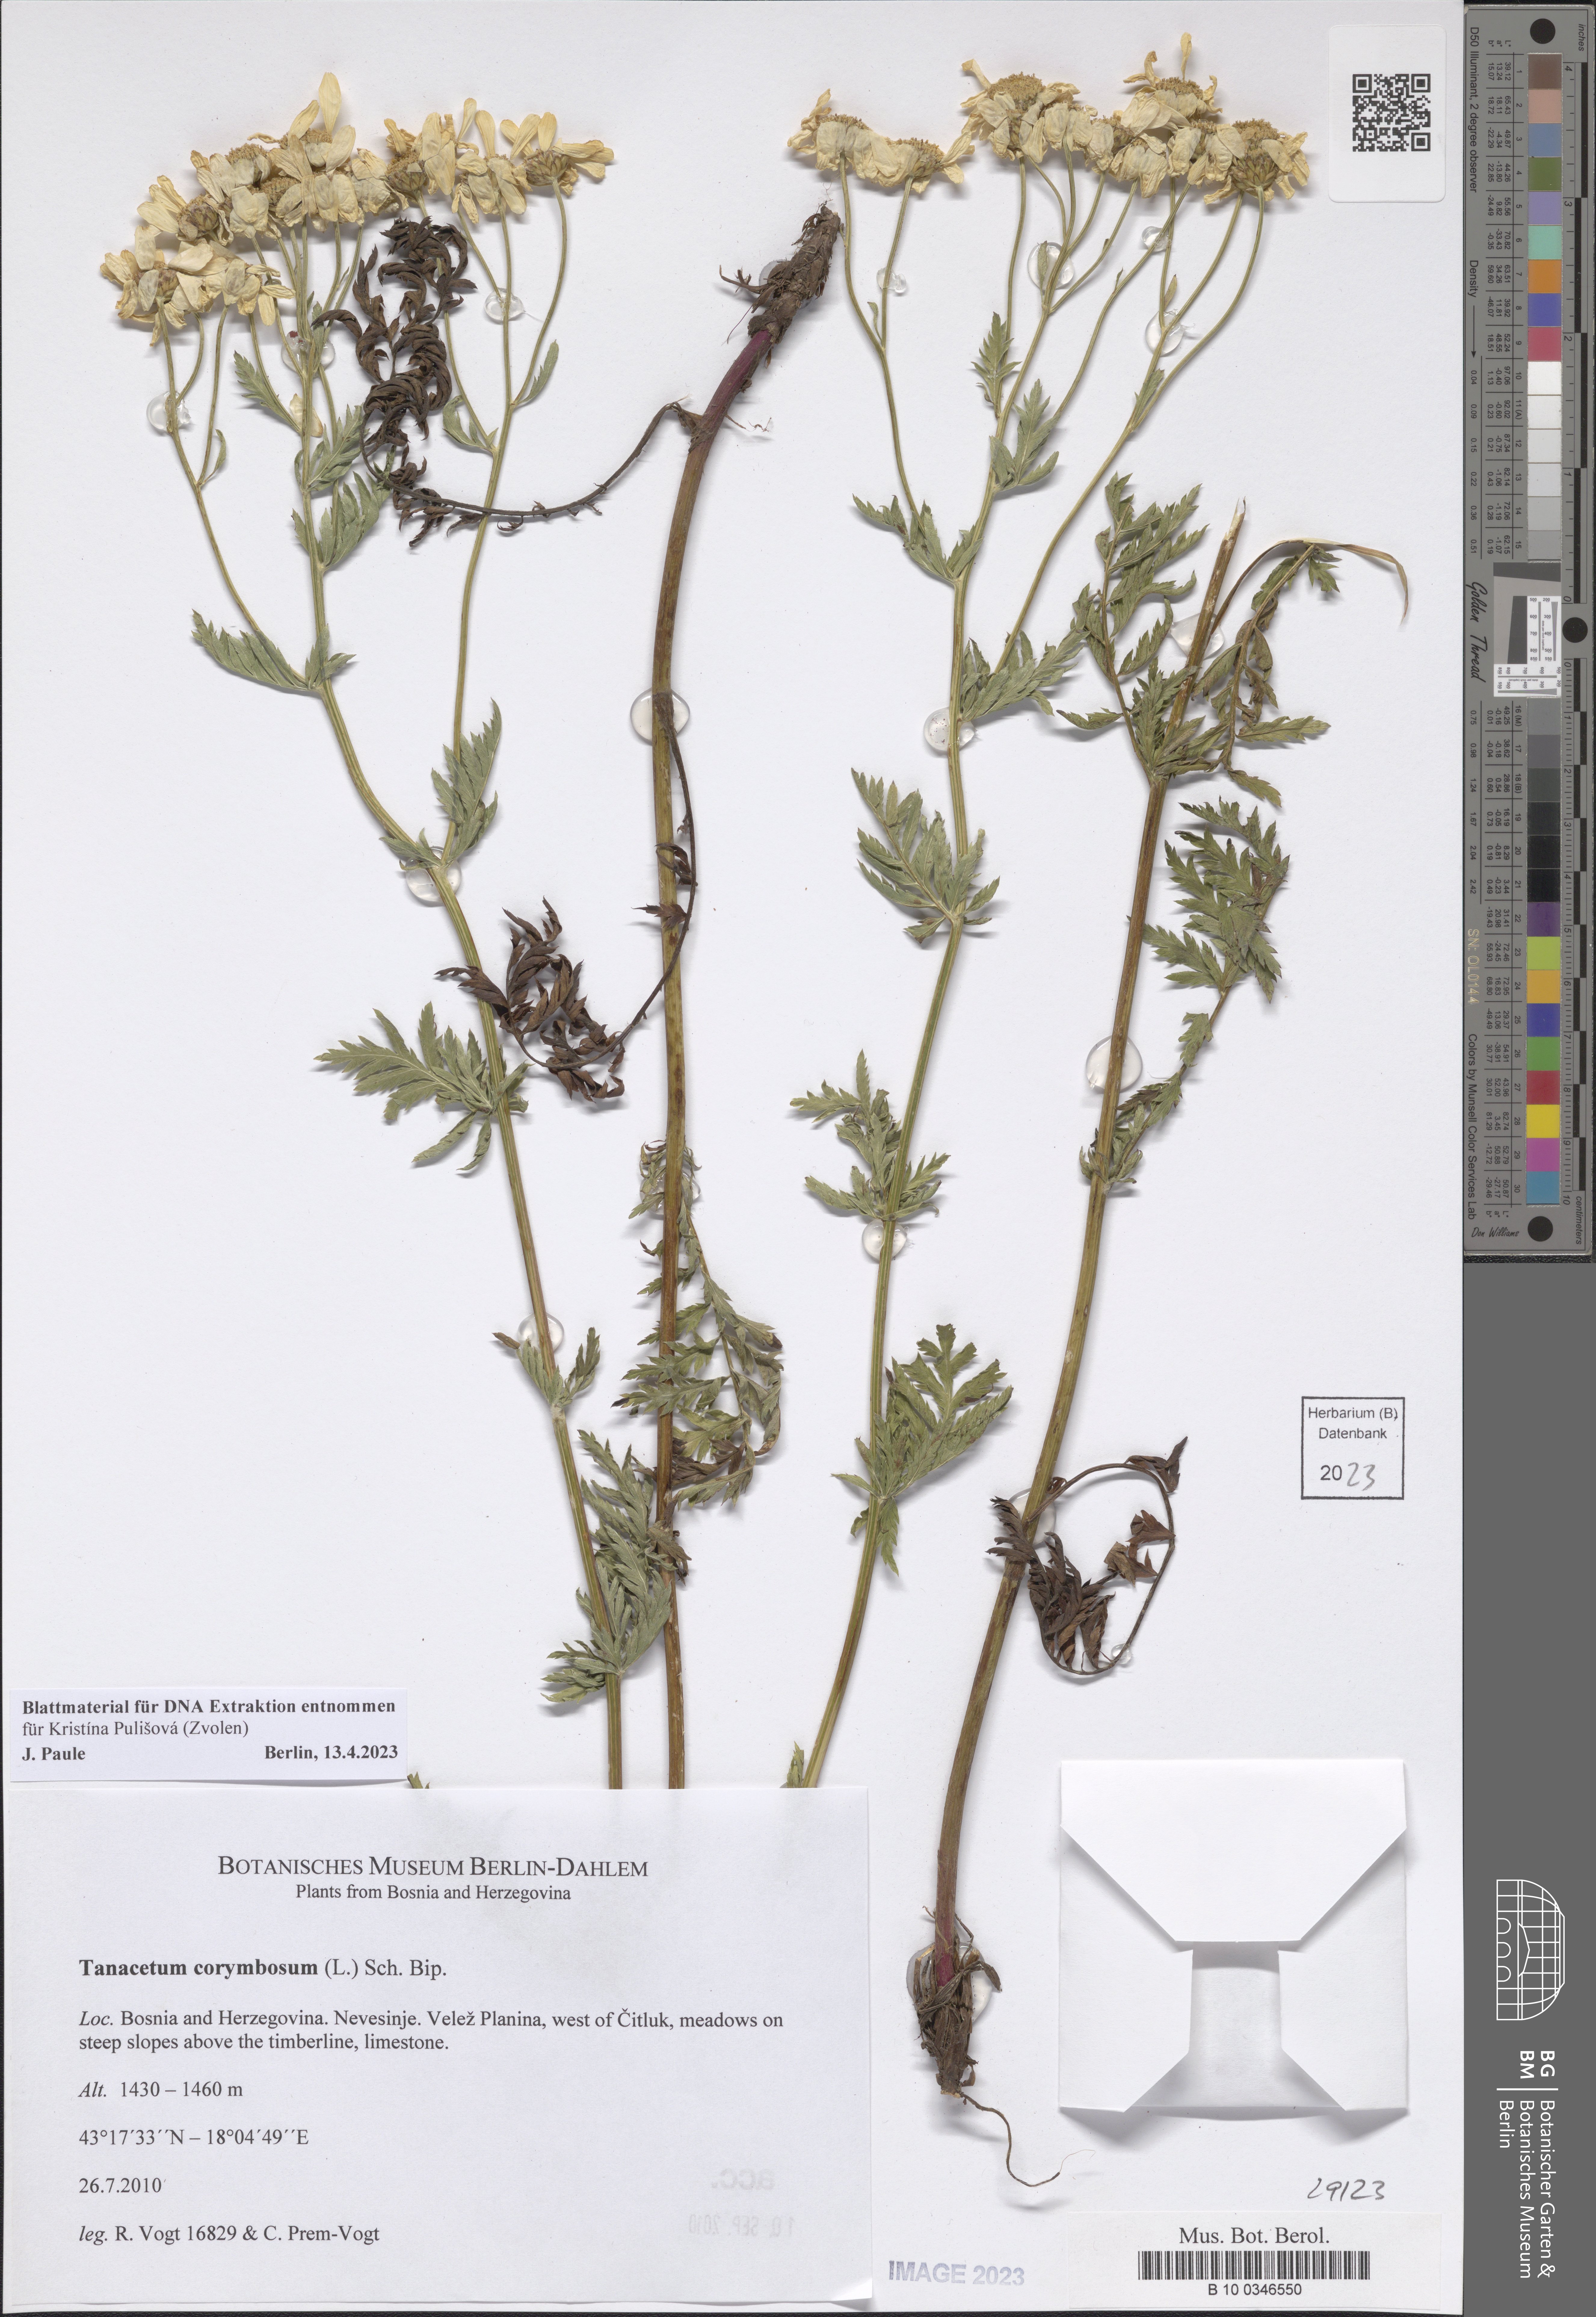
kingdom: Plantae
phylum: Tracheophyta
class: Magnoliopsida
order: Asterales
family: Asteraceae
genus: Tanacetum
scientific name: Tanacetum corymbosum
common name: Scentless feverfew
